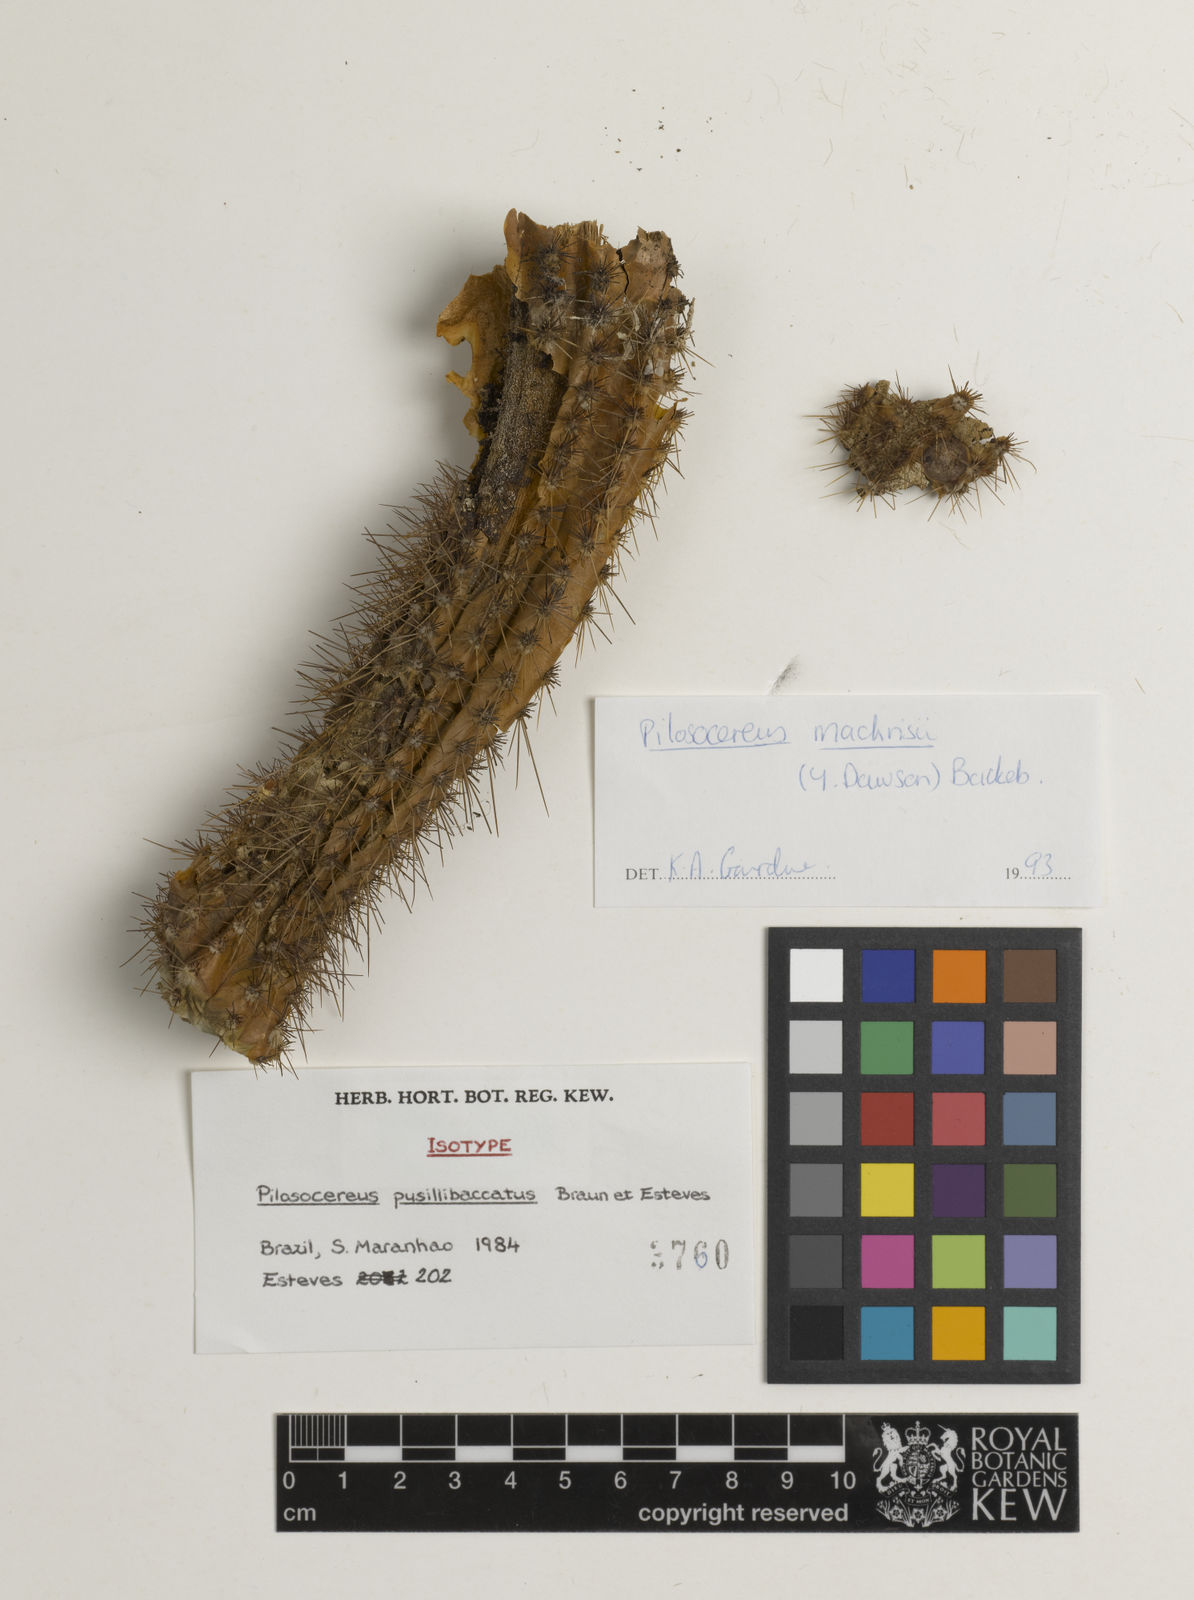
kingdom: Plantae
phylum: Tracheophyta
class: Magnoliopsida
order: Caryophyllales
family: Cactaceae
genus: Pilosocereus
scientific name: Pilosocereus pusillibaccatus
